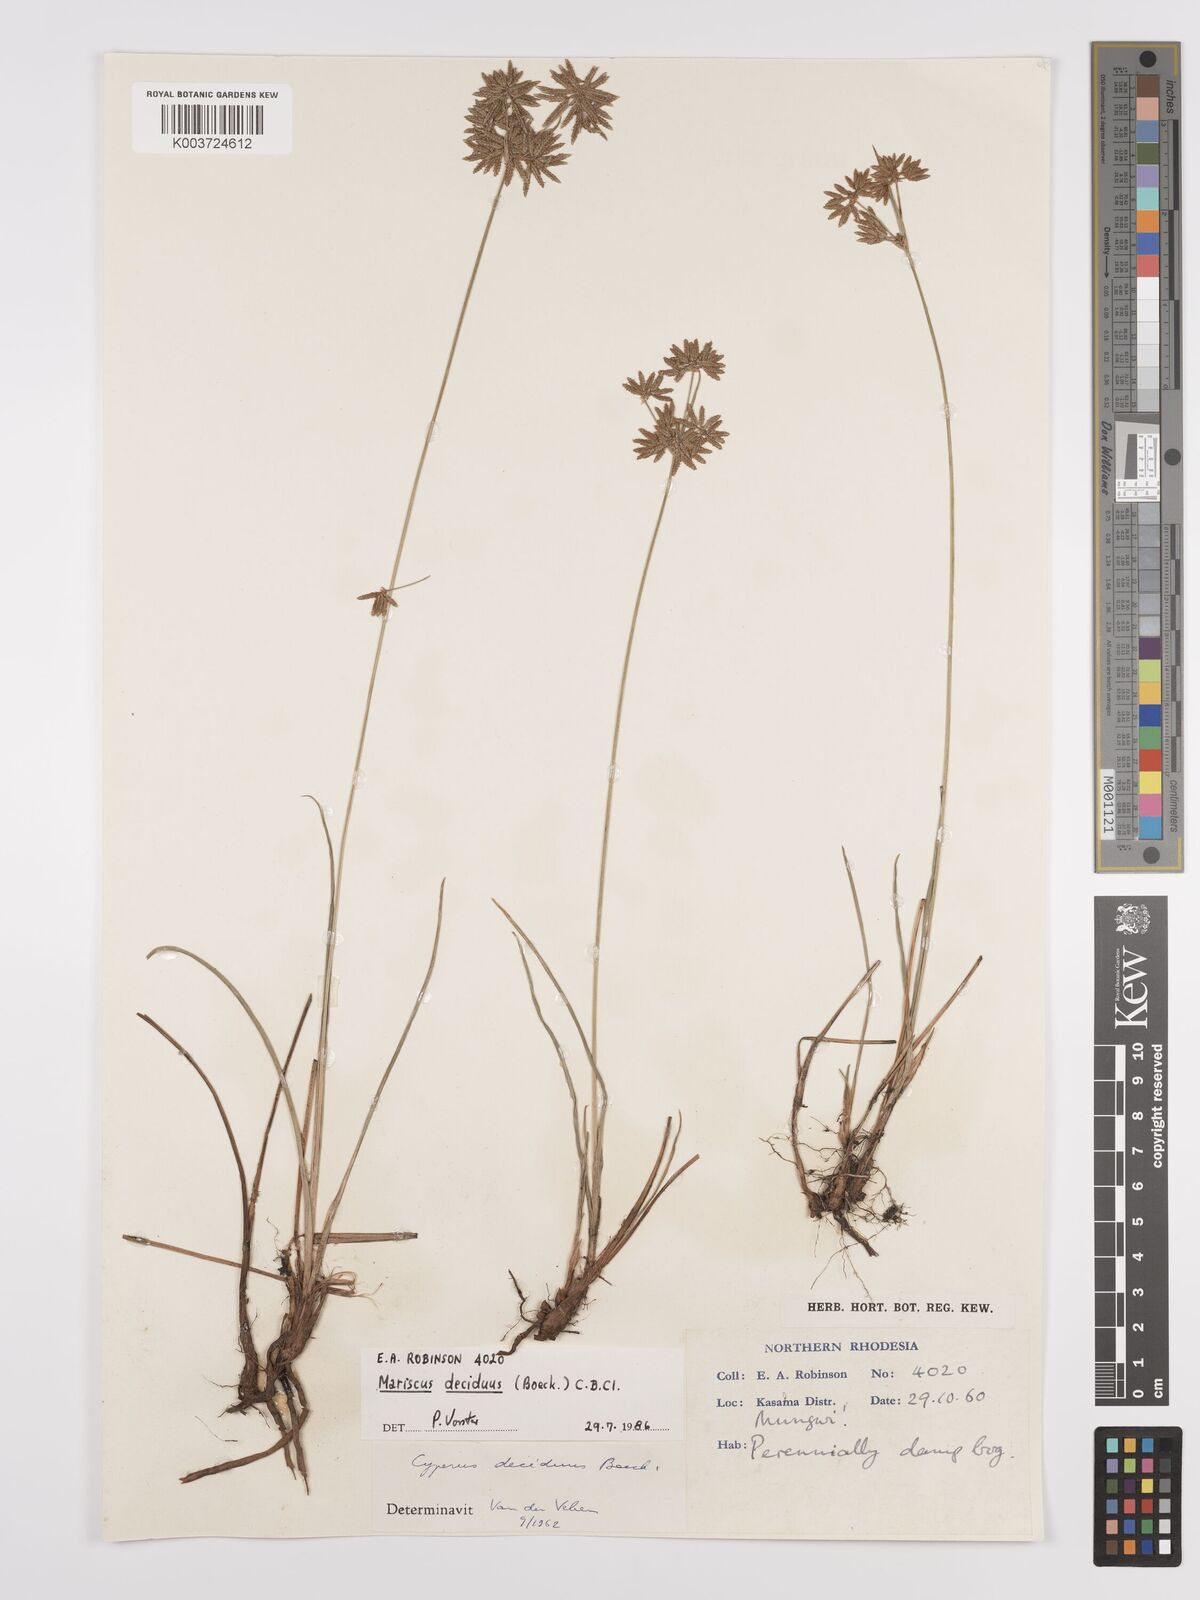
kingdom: Plantae
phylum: Tracheophyta
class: Liliopsida
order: Poales
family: Cyperaceae
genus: Cyperus
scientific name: Cyperus deciduus
